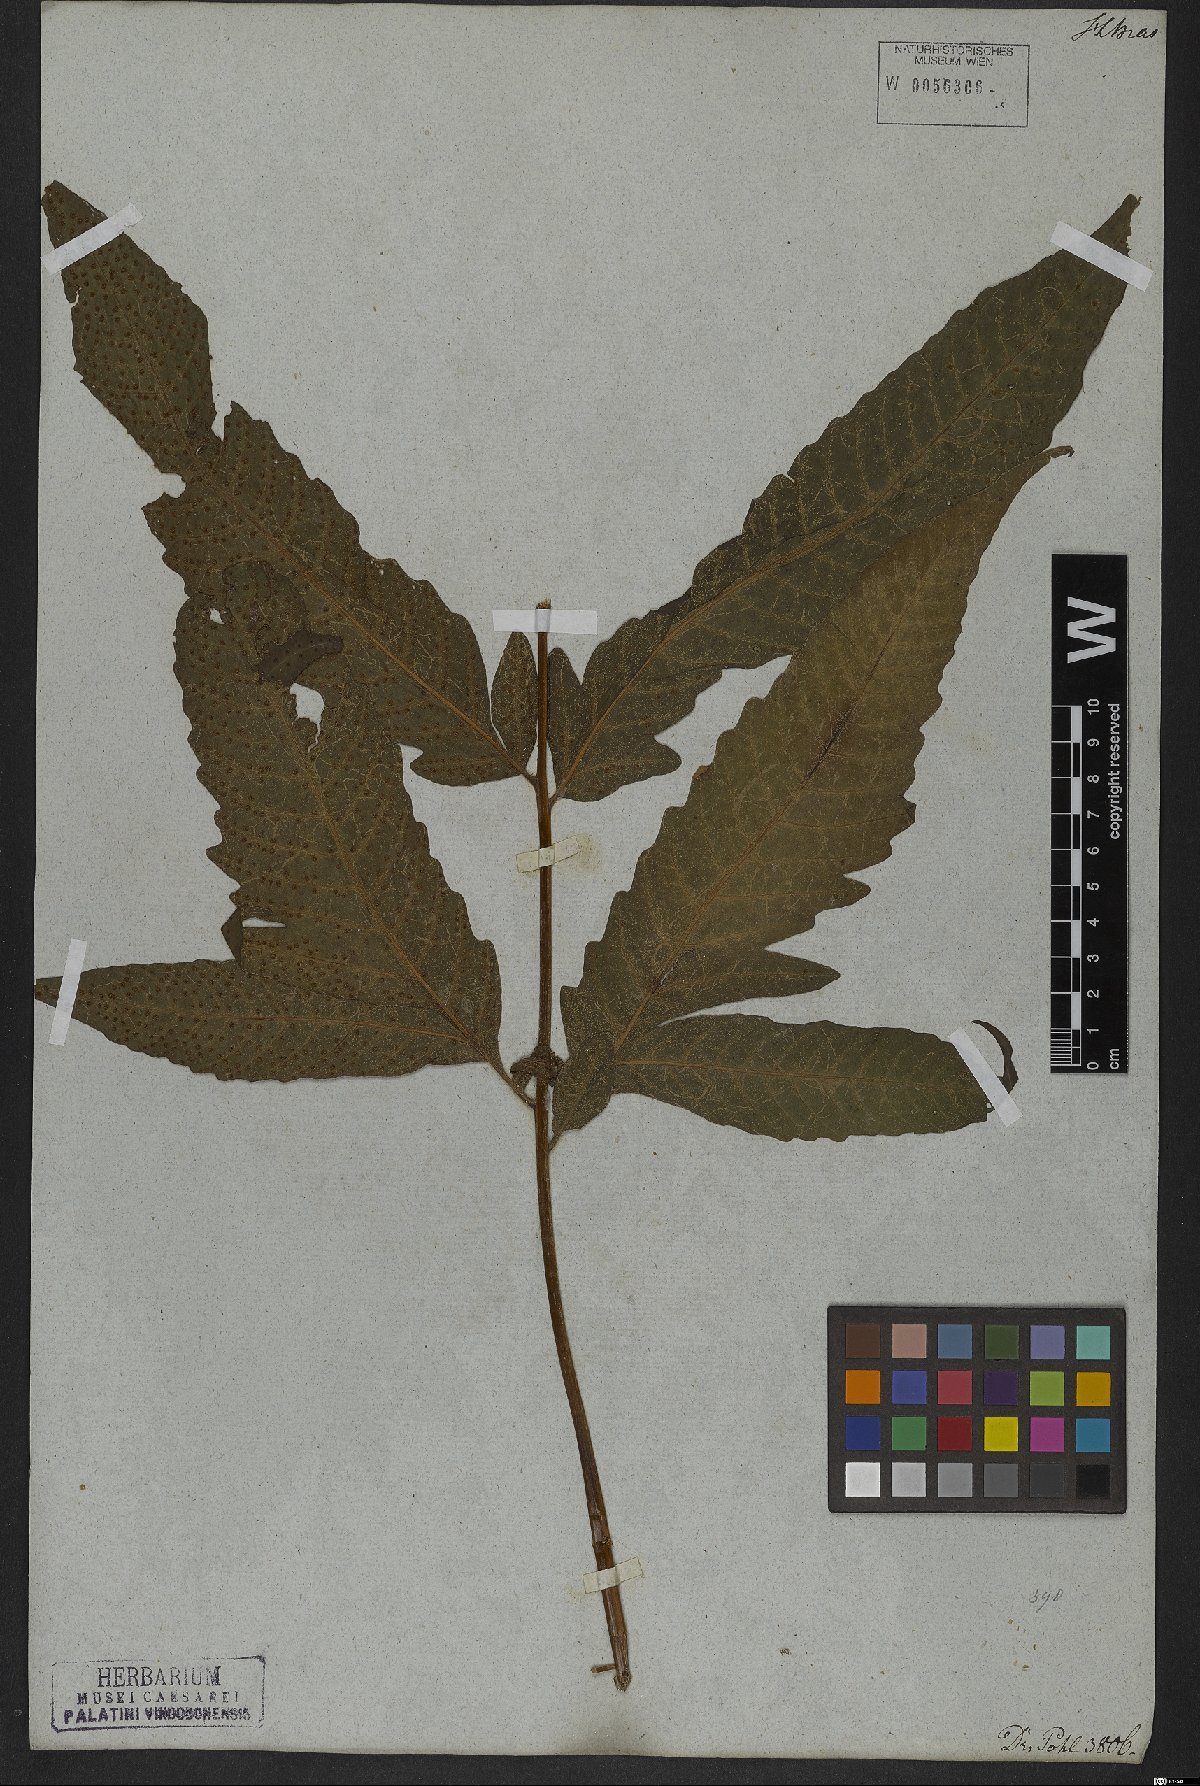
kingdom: Plantae
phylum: Tracheophyta
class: Polypodiopsida
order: Polypodiales
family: Tectariaceae
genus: Tectaria
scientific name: Tectaria incisa
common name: Incised halberd fern
